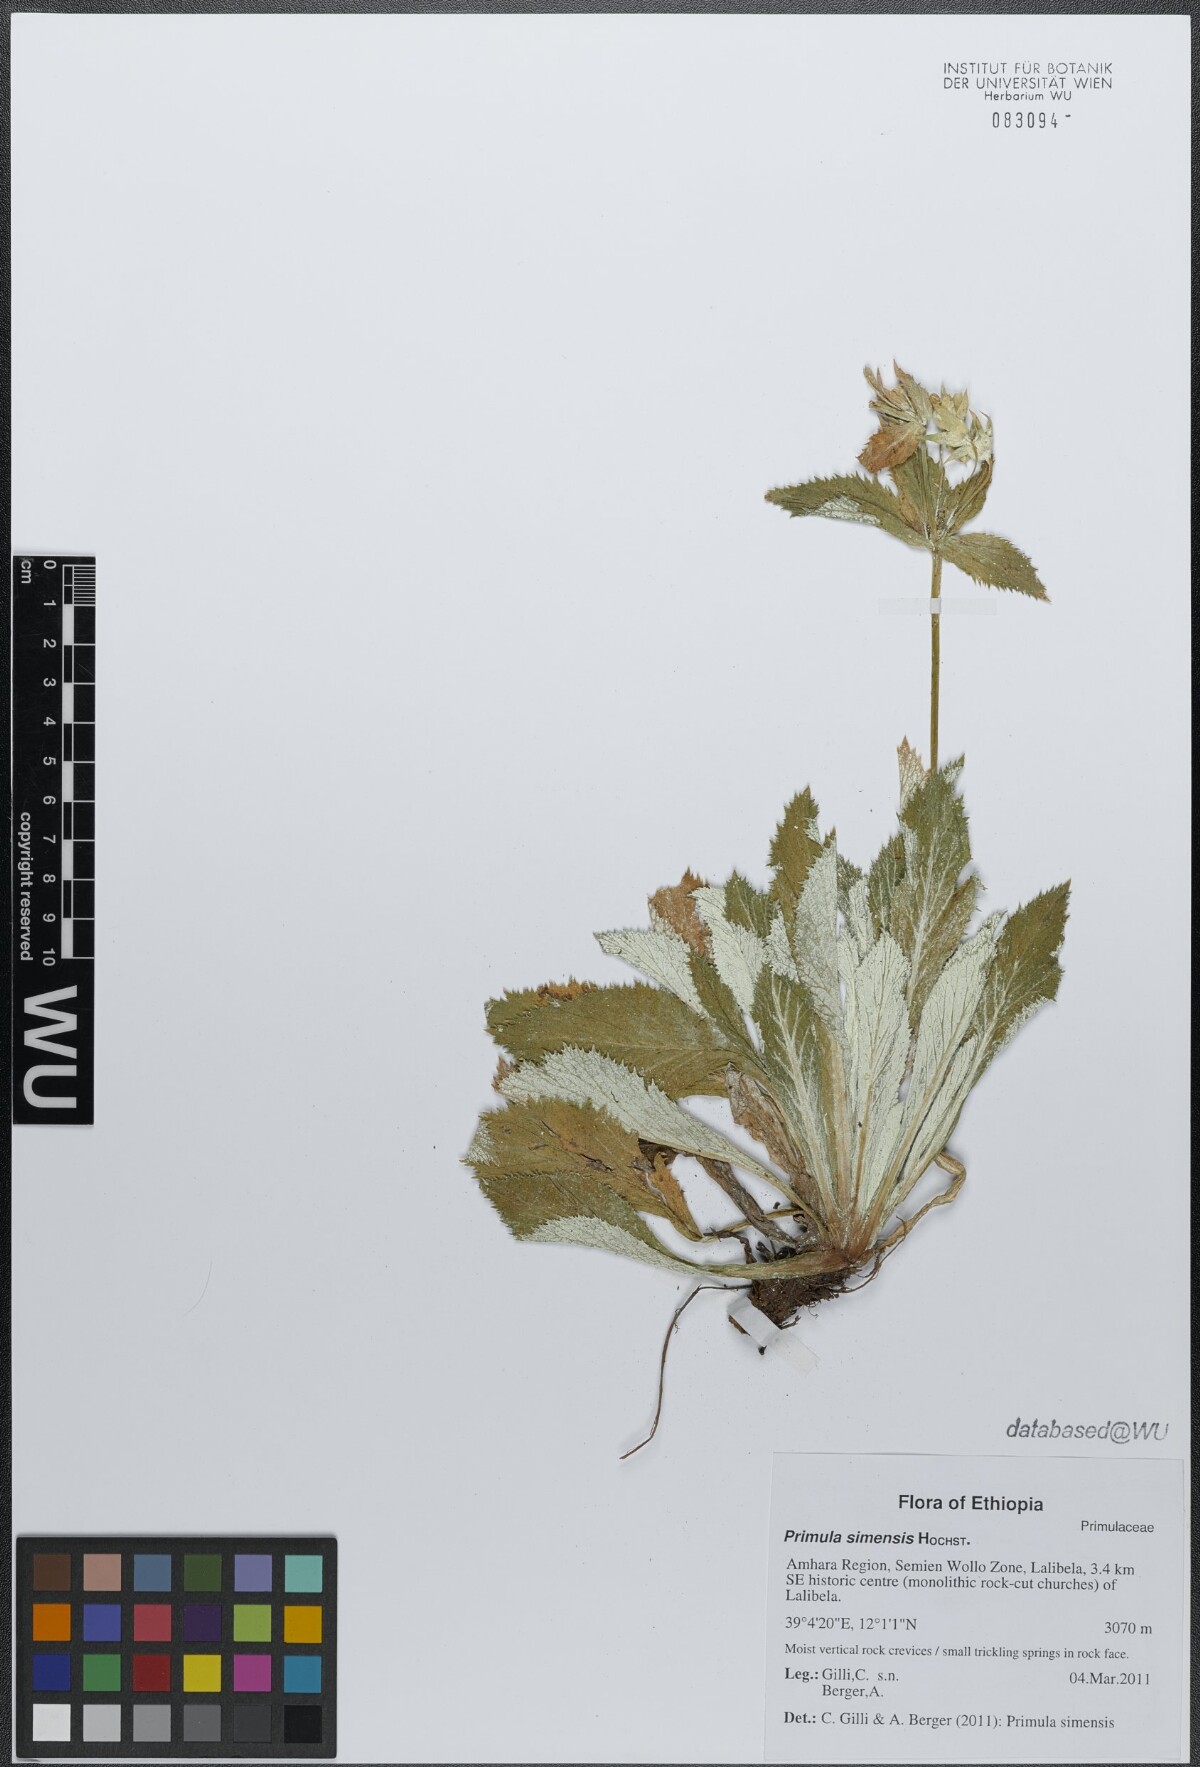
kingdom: Plantae
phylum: Tracheophyta
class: Magnoliopsida
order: Ericales
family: Primulaceae
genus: Evotrochis
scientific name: Evotrochis simensis
